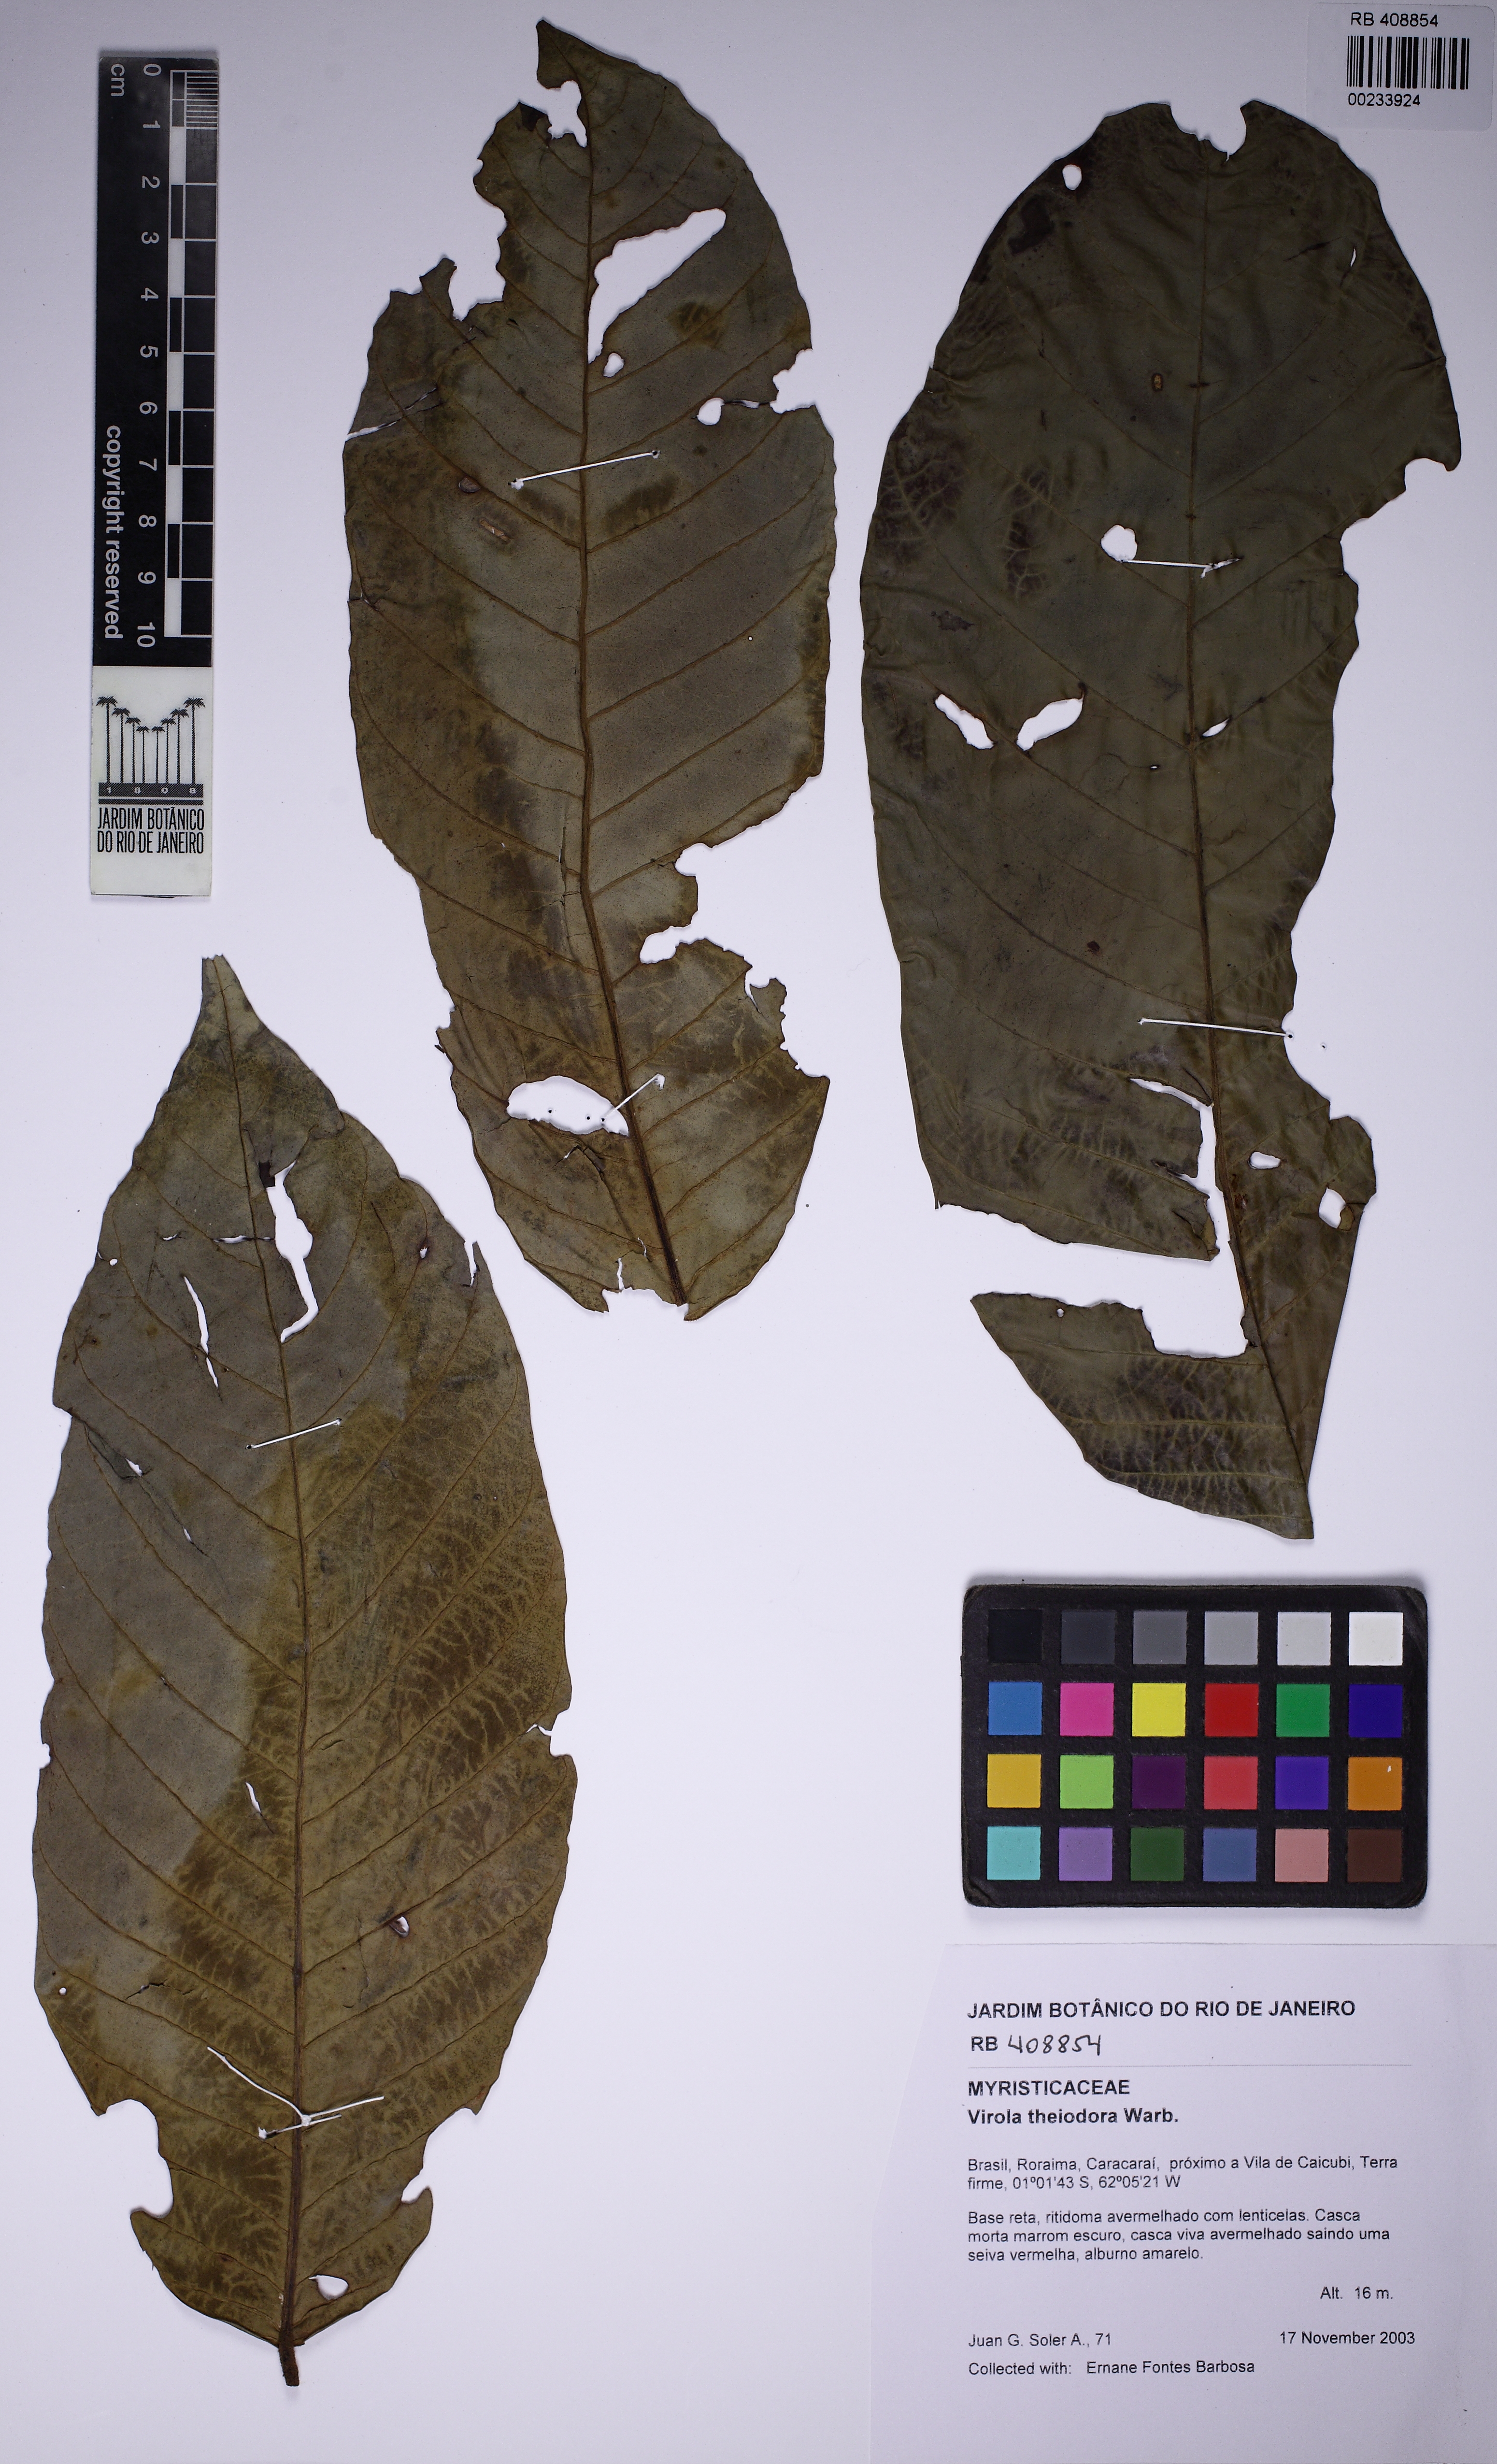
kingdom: Plantae
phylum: Tracheophyta
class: Magnoliopsida
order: Magnoliales
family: Myristicaceae
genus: Virola
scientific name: Virola theiodora
